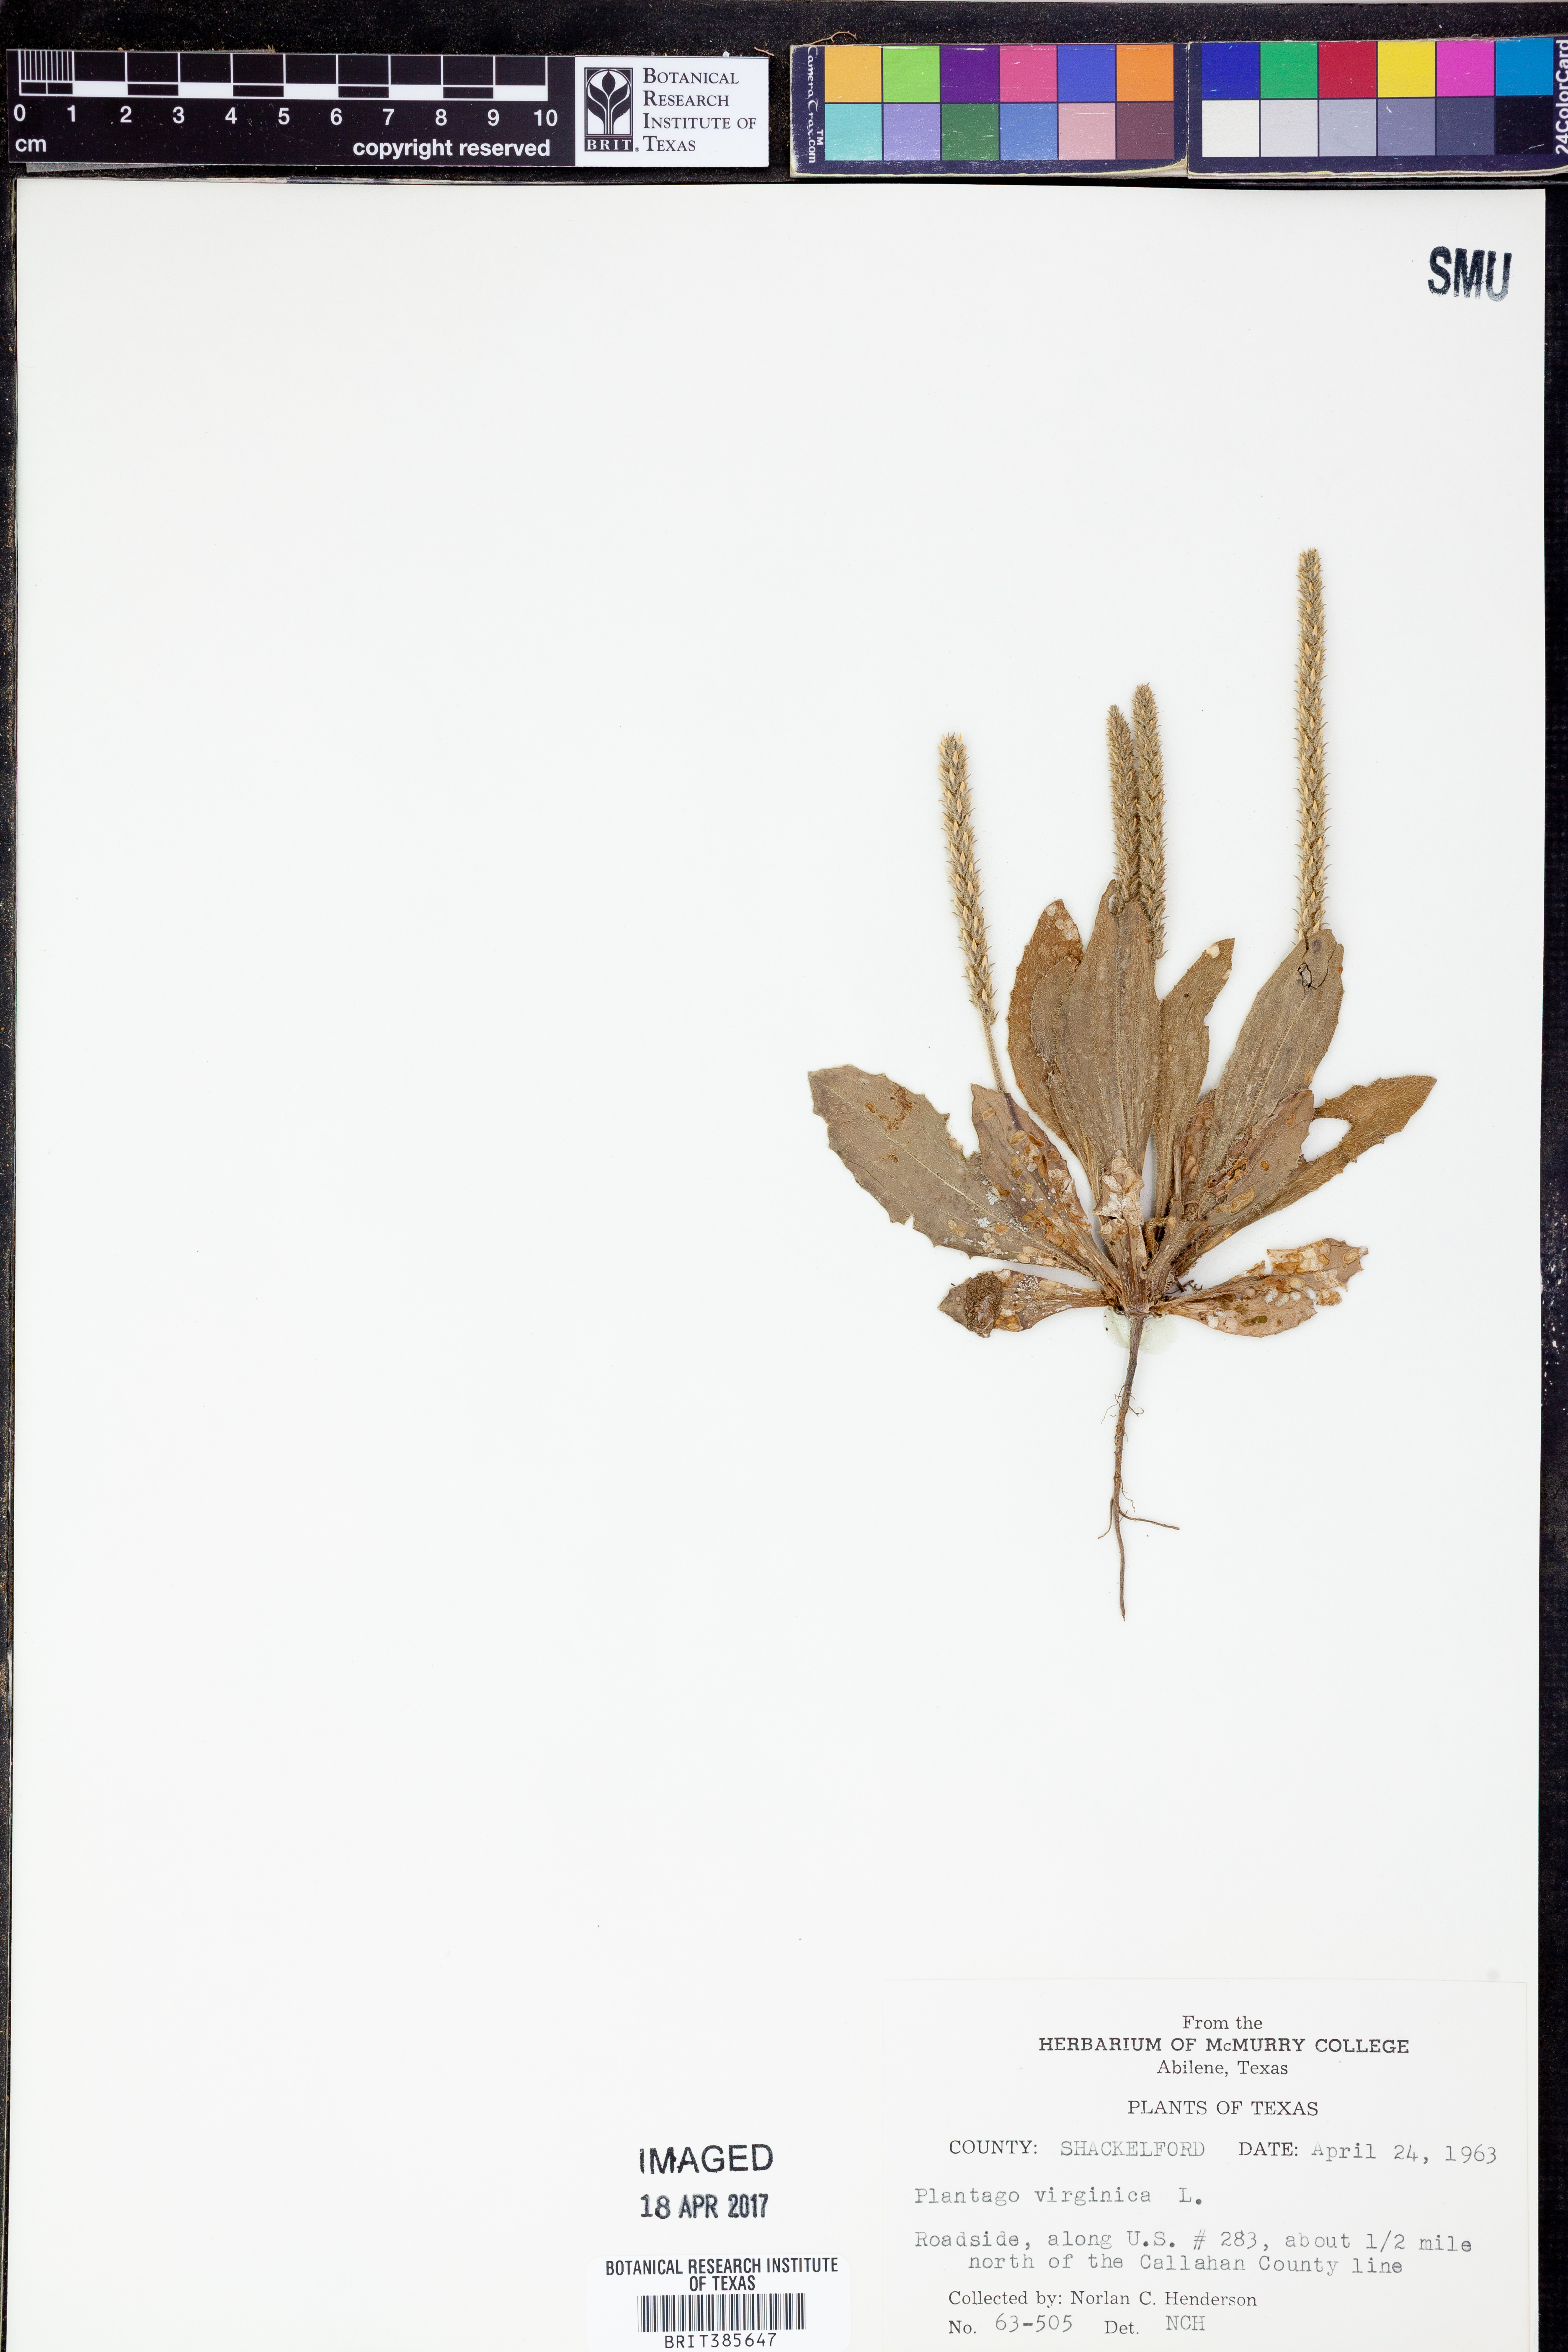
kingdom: Plantae
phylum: Tracheophyta
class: Magnoliopsida
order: Lamiales
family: Plantaginaceae
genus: Plantago
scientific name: Plantago virginica
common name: Hoary plantain
